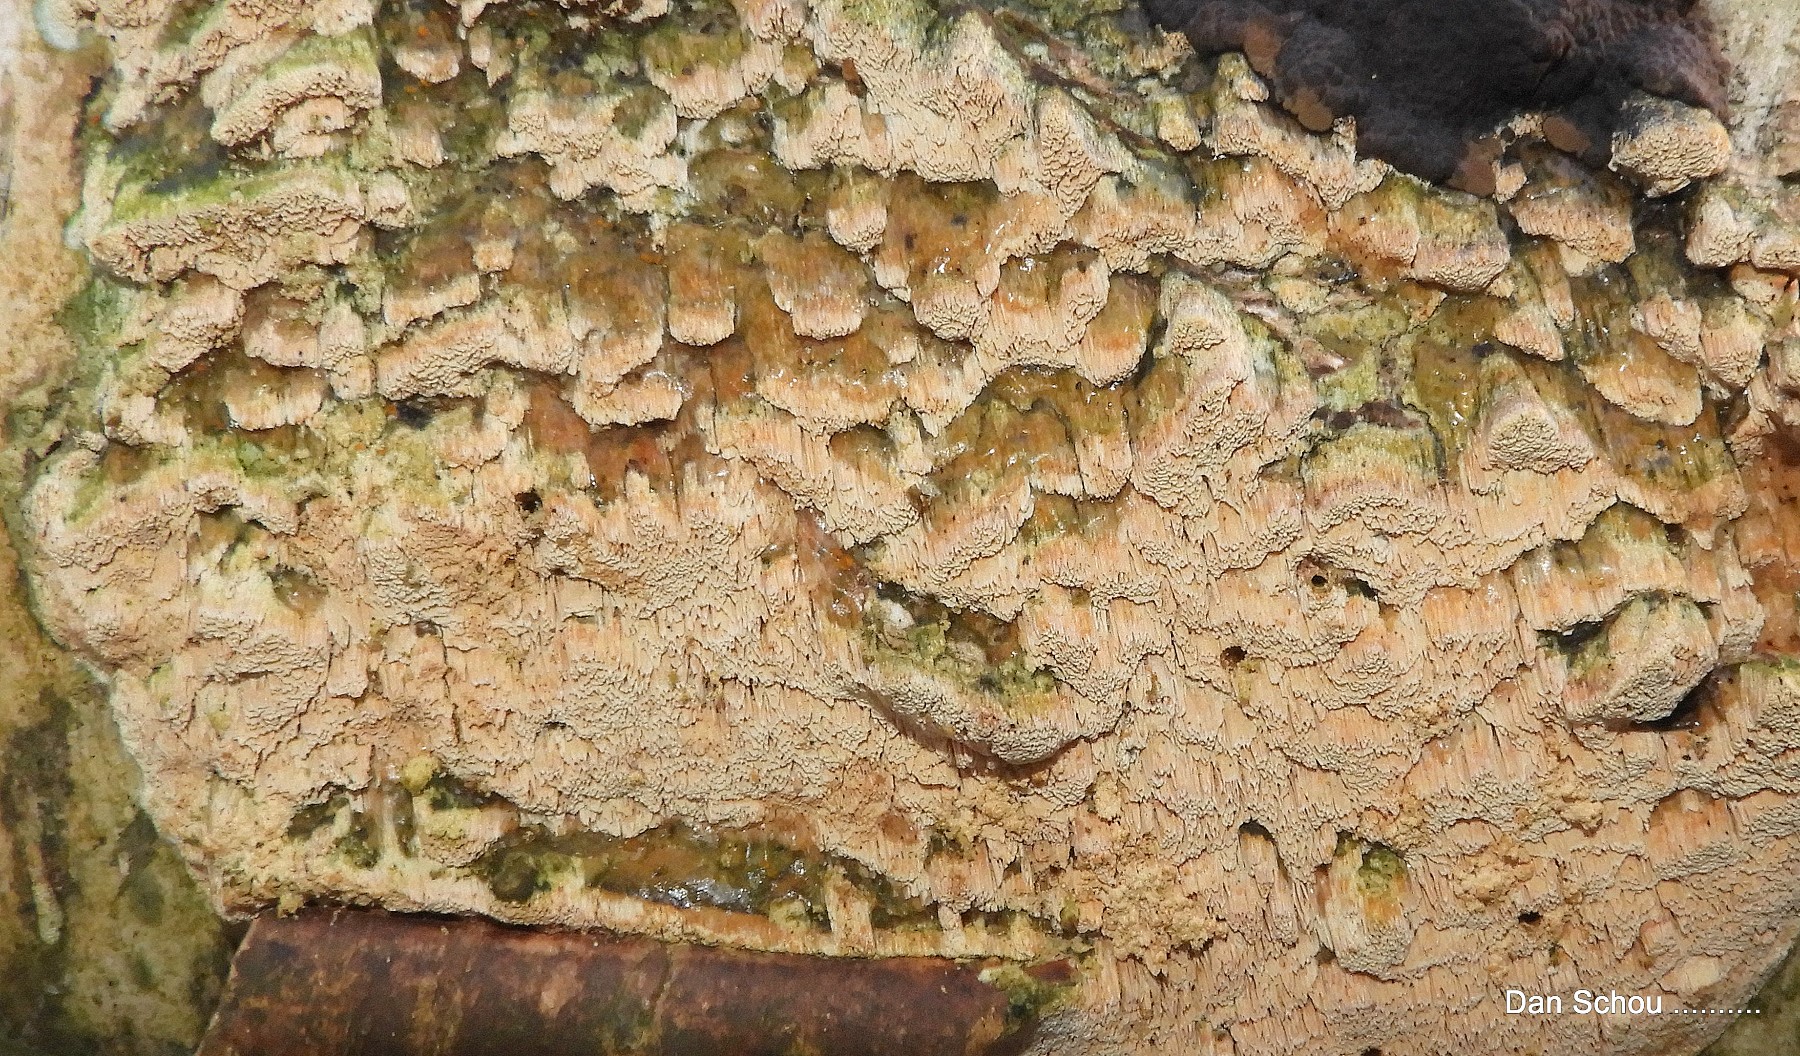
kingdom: Fungi
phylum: Basidiomycota
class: Agaricomycetes
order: Hymenochaetales
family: Schizoporaceae
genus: Xylodon
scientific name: Xylodon
